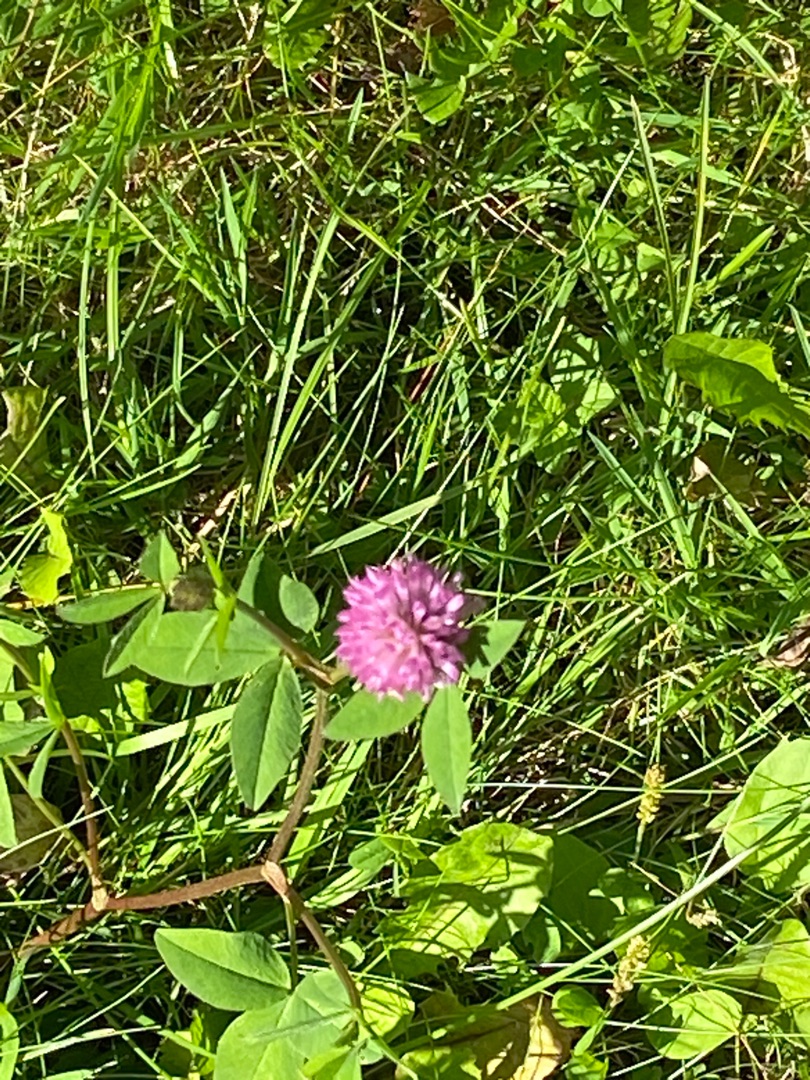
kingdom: Plantae
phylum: Tracheophyta
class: Magnoliopsida
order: Fabales
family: Fabaceae
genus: Trifolium
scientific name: Trifolium pratense
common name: Rød-kløver
